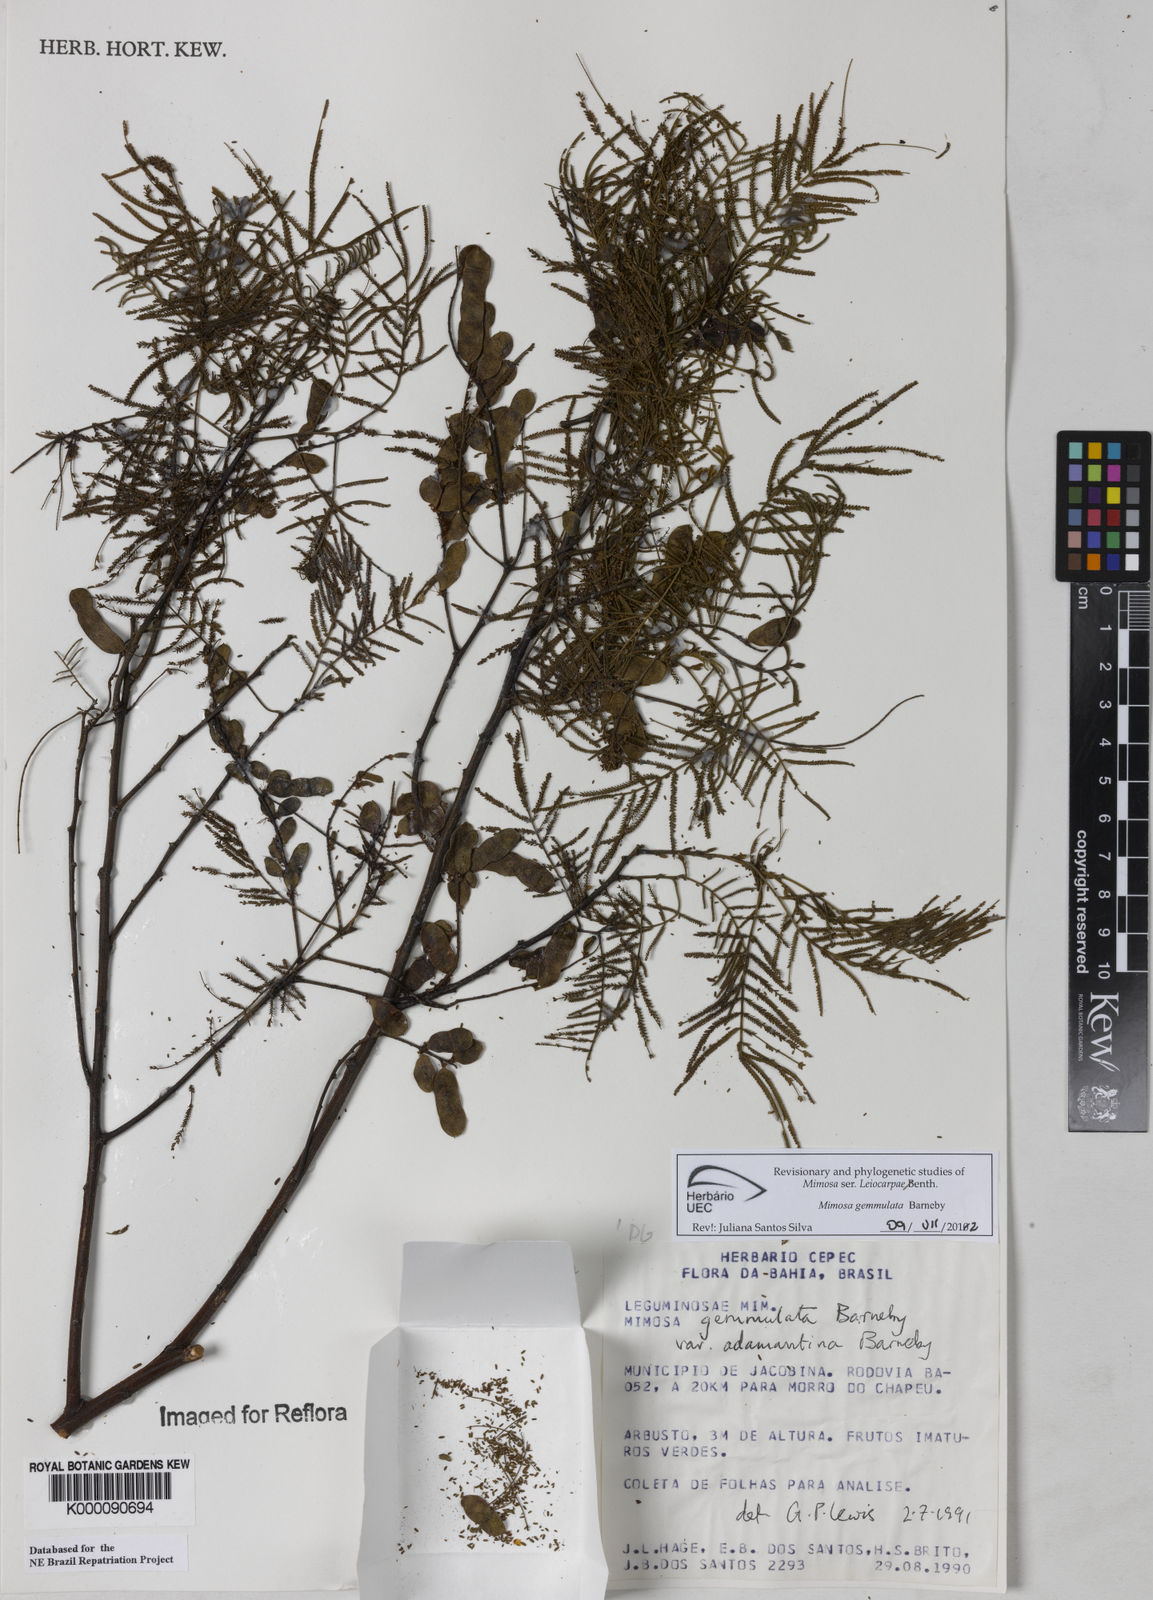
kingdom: Plantae
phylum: Tracheophyta
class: Magnoliopsida
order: Fabales
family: Fabaceae
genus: Mimosa
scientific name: Mimosa gemmulata
